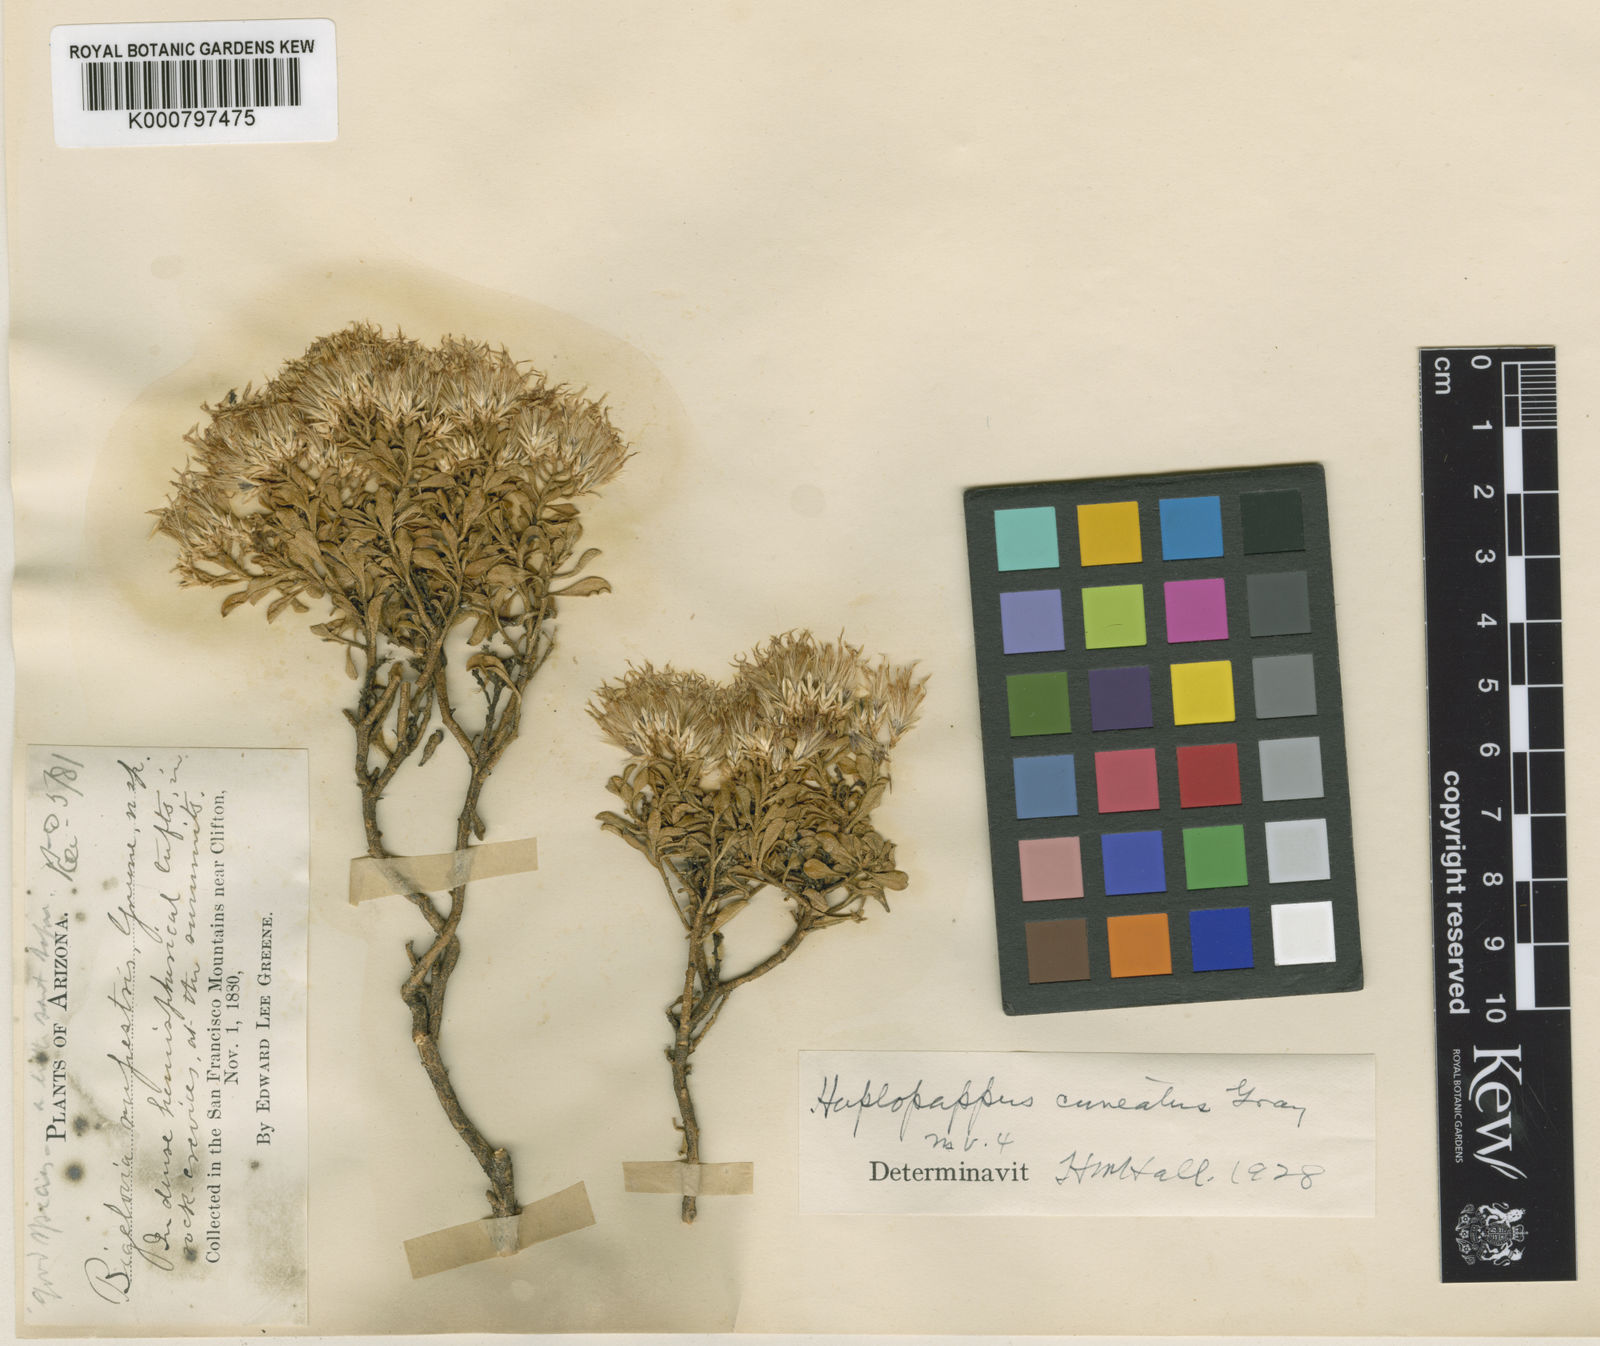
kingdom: Plantae
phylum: Tracheophyta
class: Magnoliopsida
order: Asterales
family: Asteraceae
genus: Ericameria
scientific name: Ericameria cuneata
